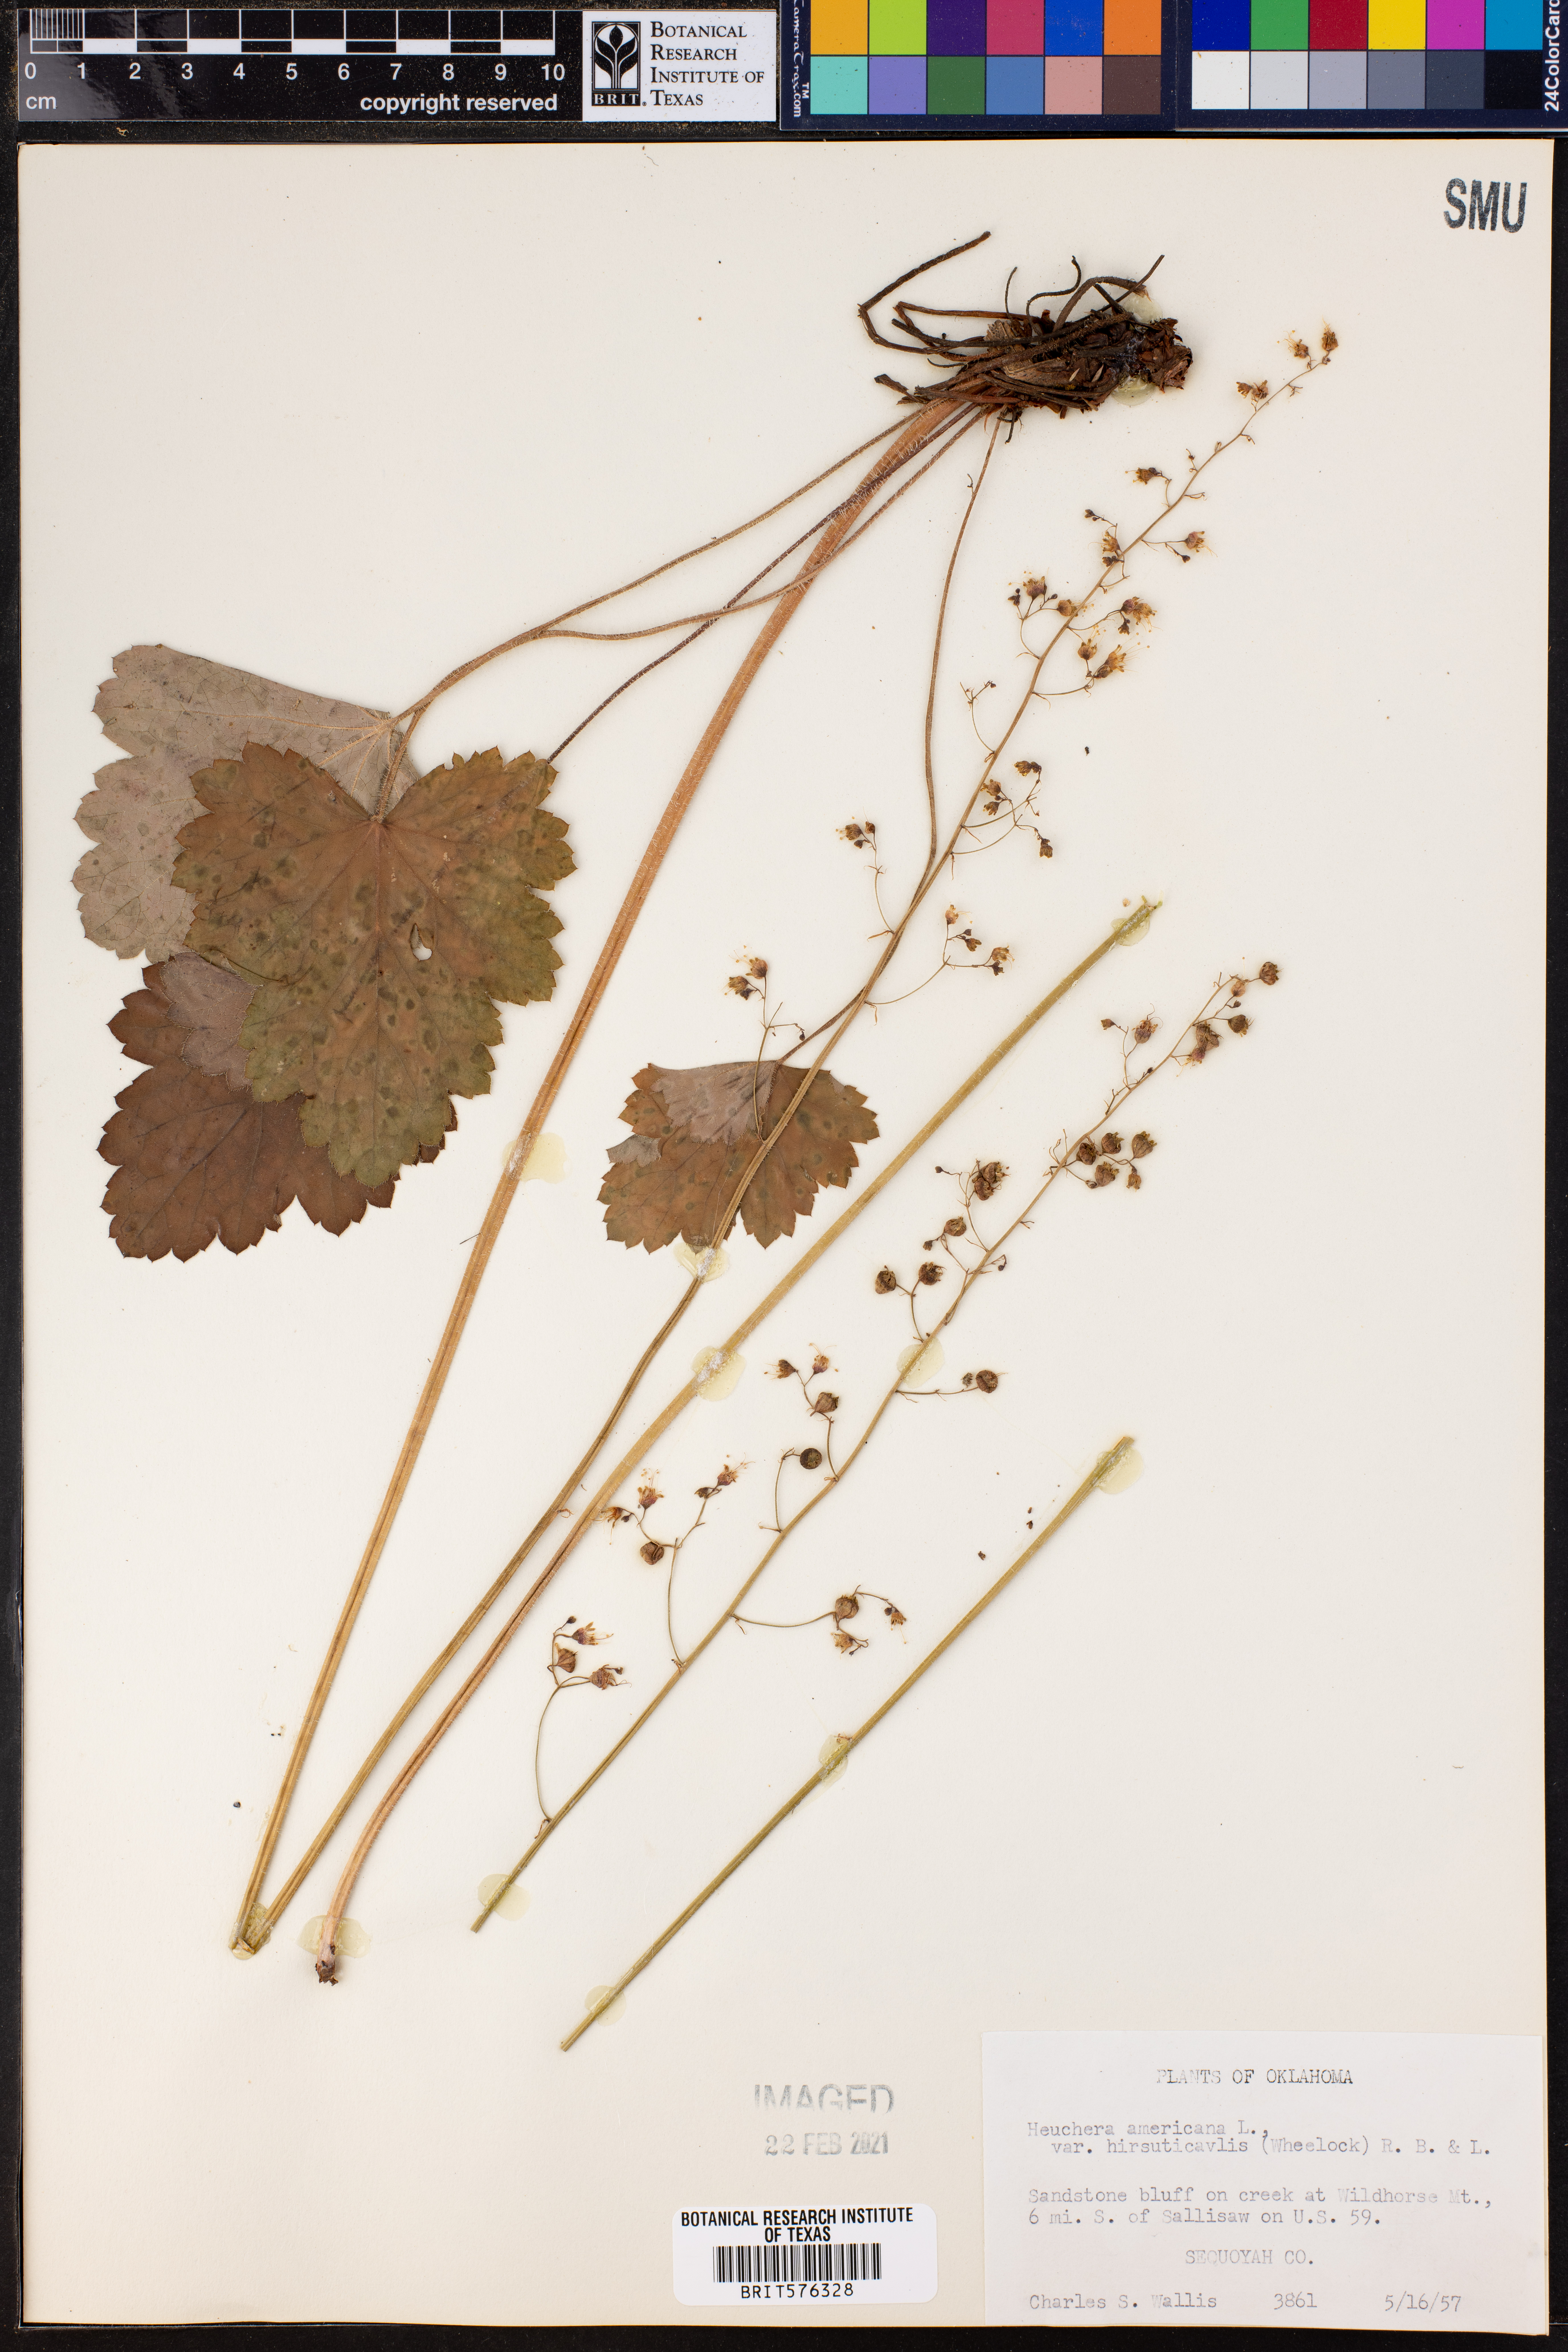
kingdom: Plantae
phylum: Tracheophyta
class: Magnoliopsida
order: Saxifragales
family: Saxifragaceae
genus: Heuchera
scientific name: Heuchera americana
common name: Alumroot
